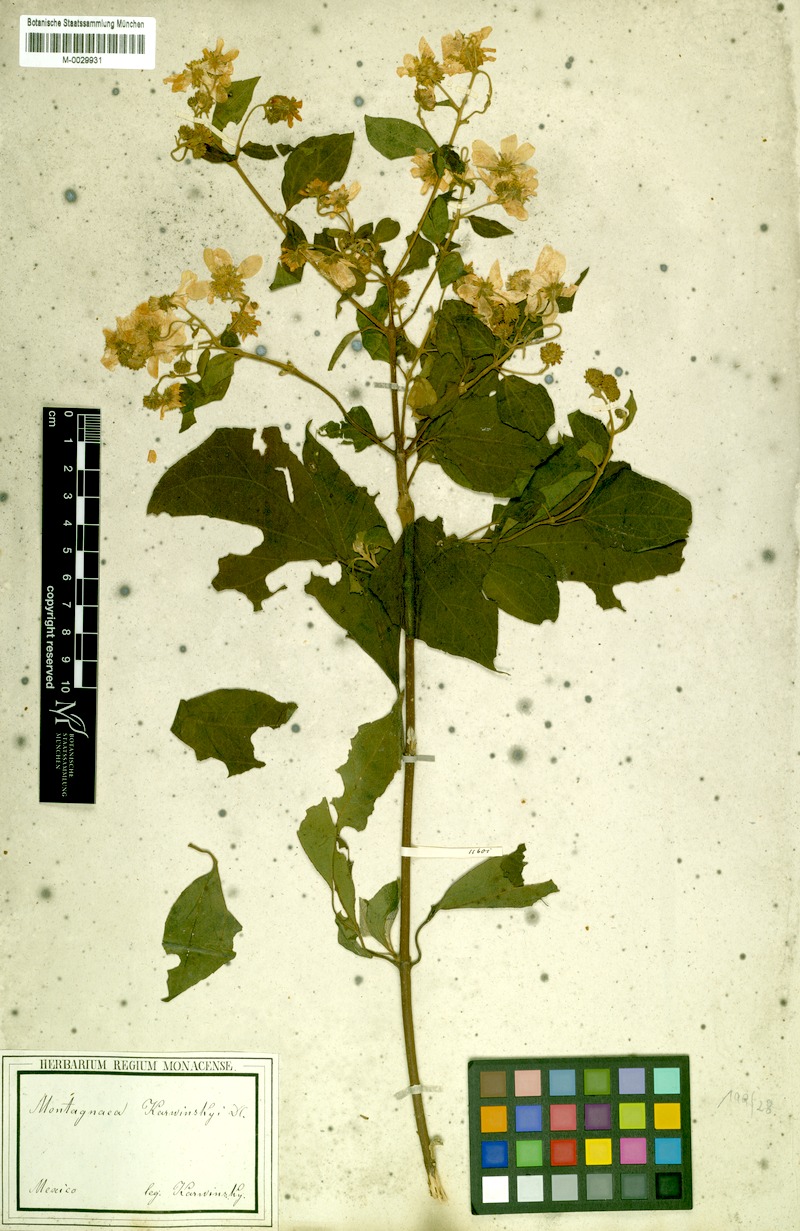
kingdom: Plantae
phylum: Tracheophyta
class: Magnoliopsida
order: Asterales
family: Asteraceae
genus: Montanoa
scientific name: Montanoa karwinskii
